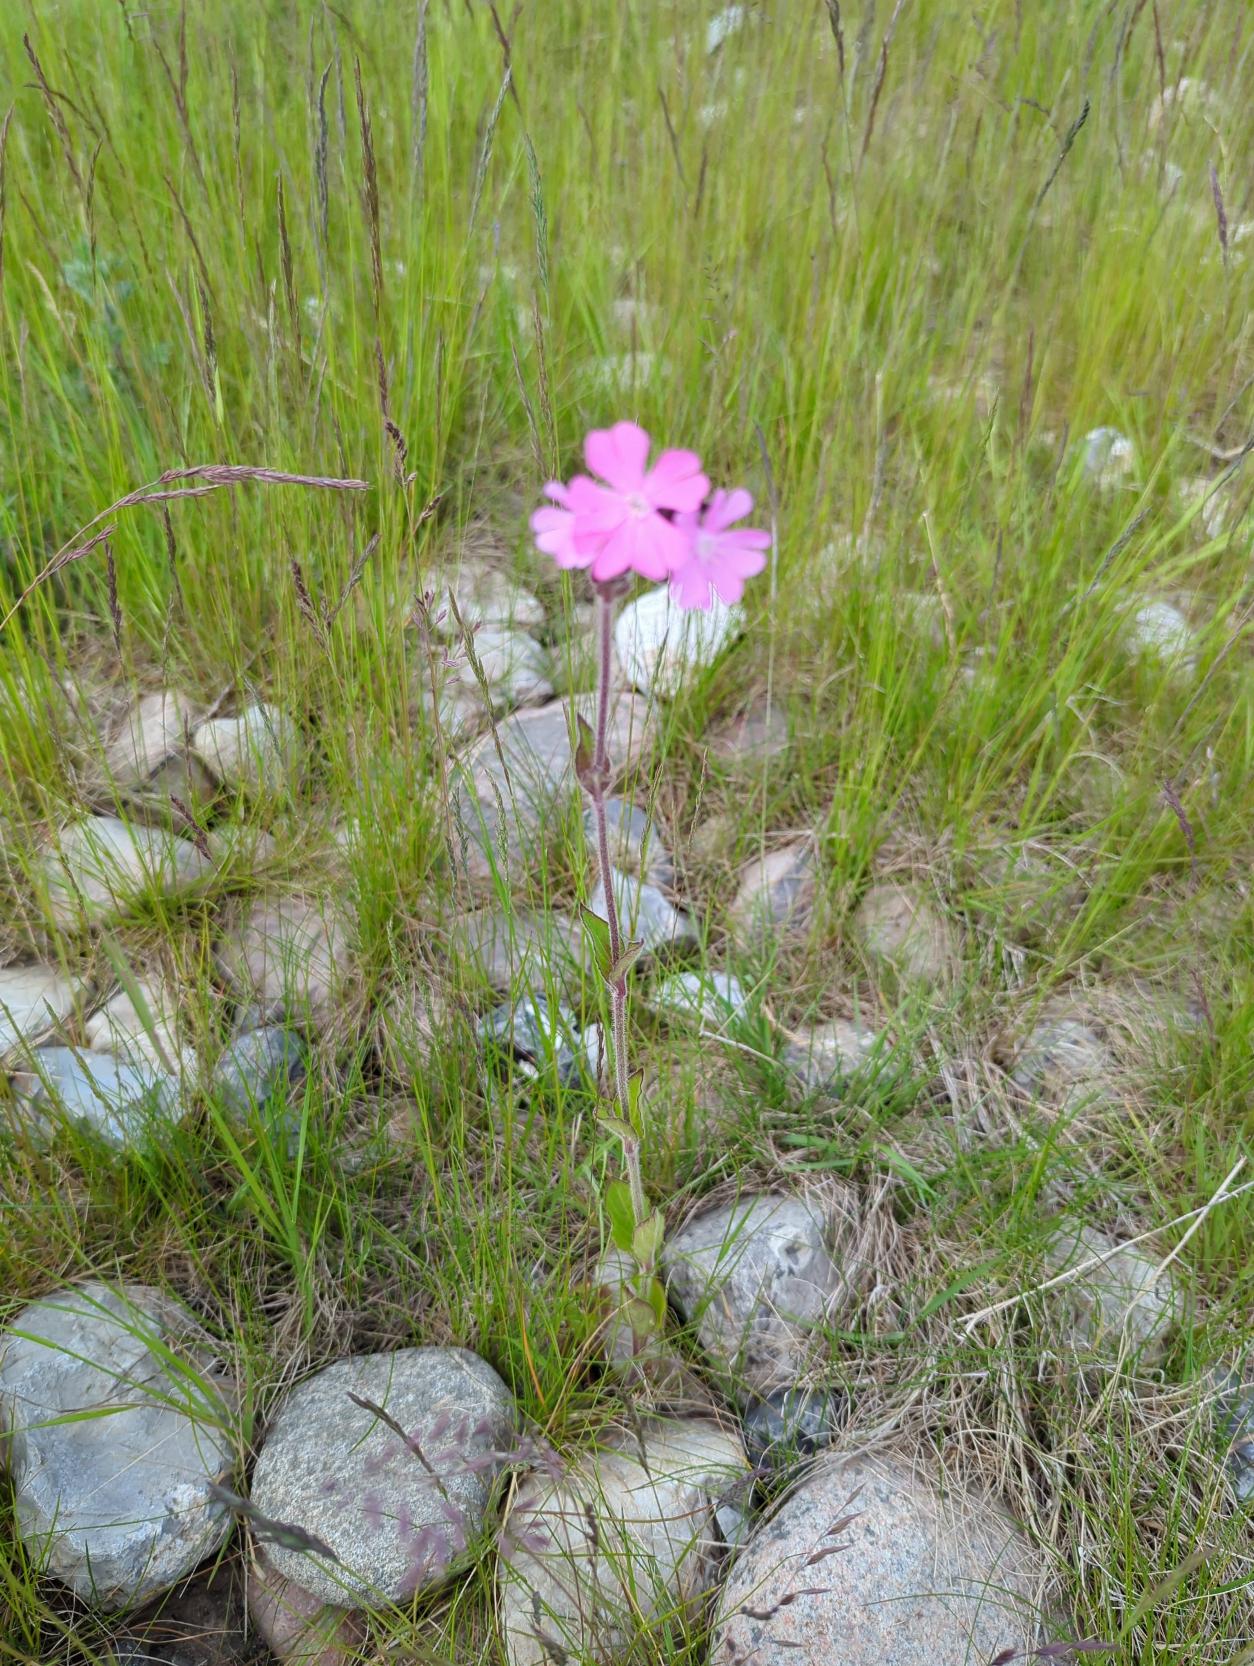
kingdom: Plantae
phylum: Tracheophyta
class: Magnoliopsida
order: Caryophyllales
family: Caryophyllaceae
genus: Silene
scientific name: Silene dioica
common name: Dagpragtstjerne
